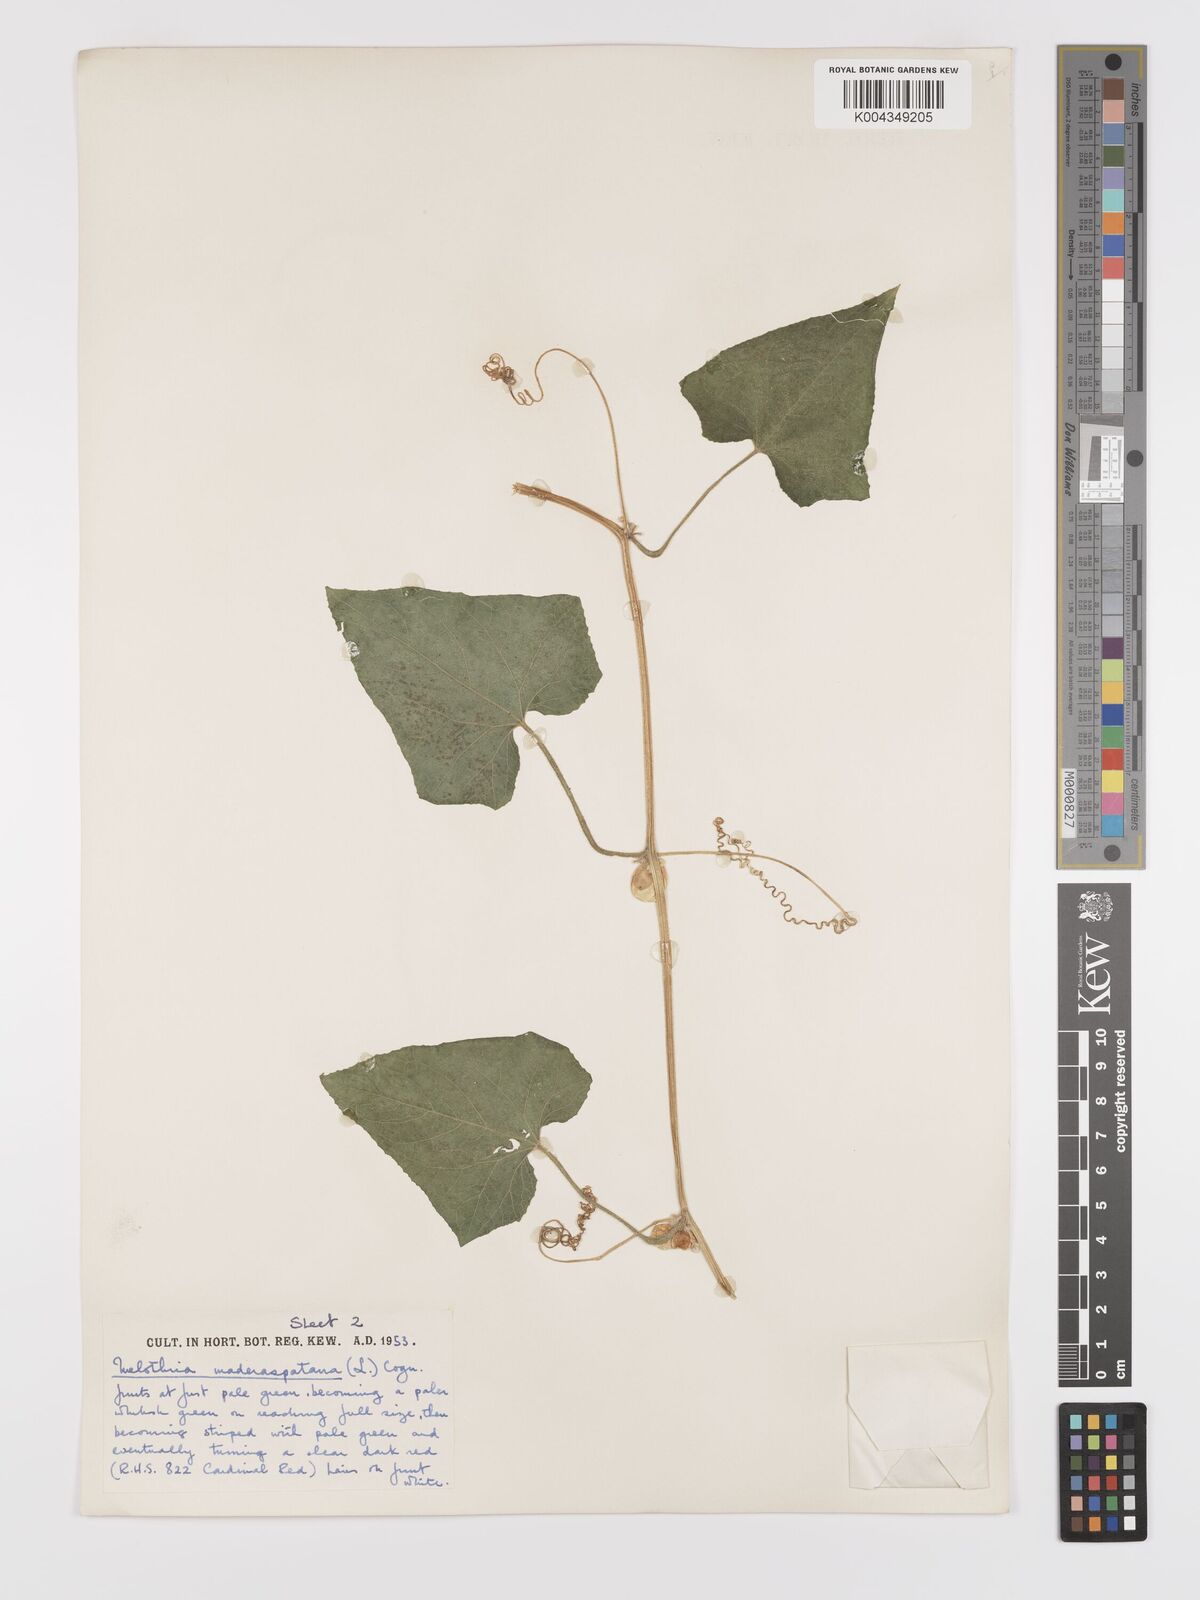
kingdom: Plantae
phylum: Tracheophyta
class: Magnoliopsida
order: Cucurbitales
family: Cucurbitaceae
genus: Cucumis
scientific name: Cucumis maderaspatanus
